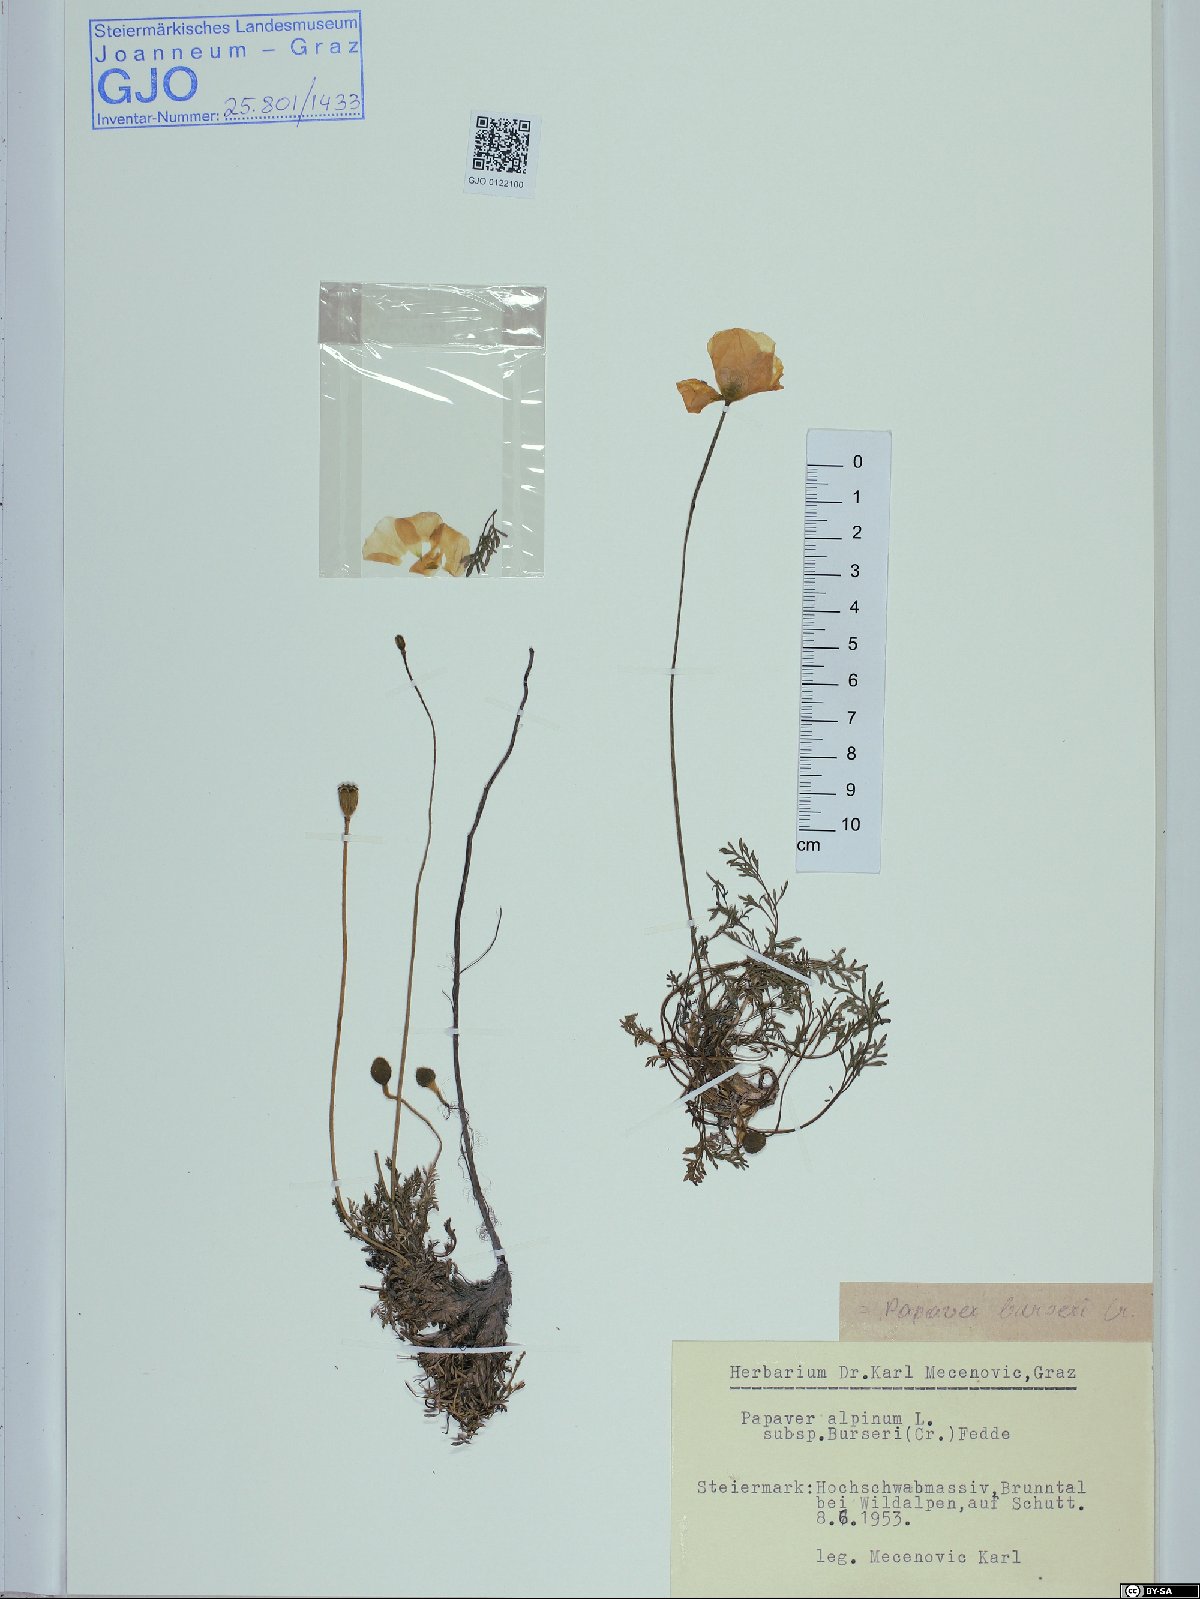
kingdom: Plantae
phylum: Tracheophyta
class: Magnoliopsida
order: Ranunculales
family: Papaveraceae
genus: Papaver
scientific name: Papaver alpinum
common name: Austrian poppy
